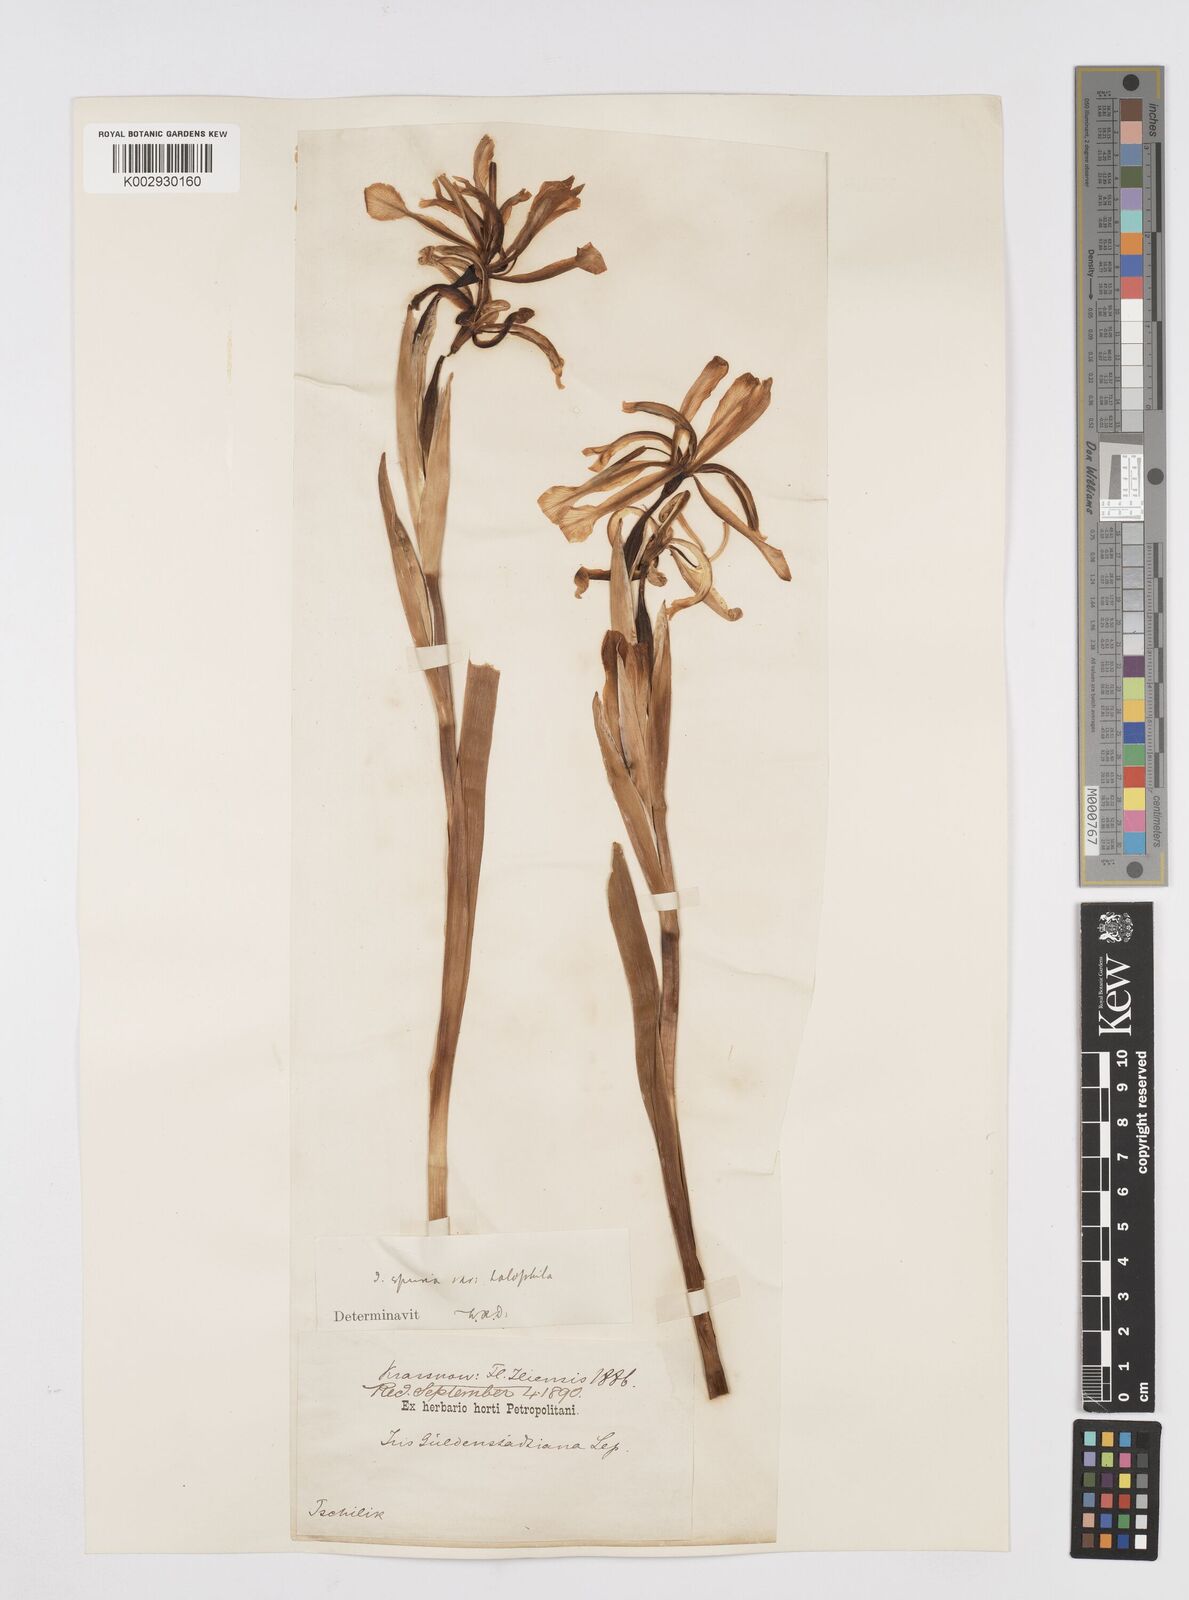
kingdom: Plantae
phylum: Tracheophyta
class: Liliopsida
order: Asparagales
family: Iridaceae
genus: Iris
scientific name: Iris halophila
